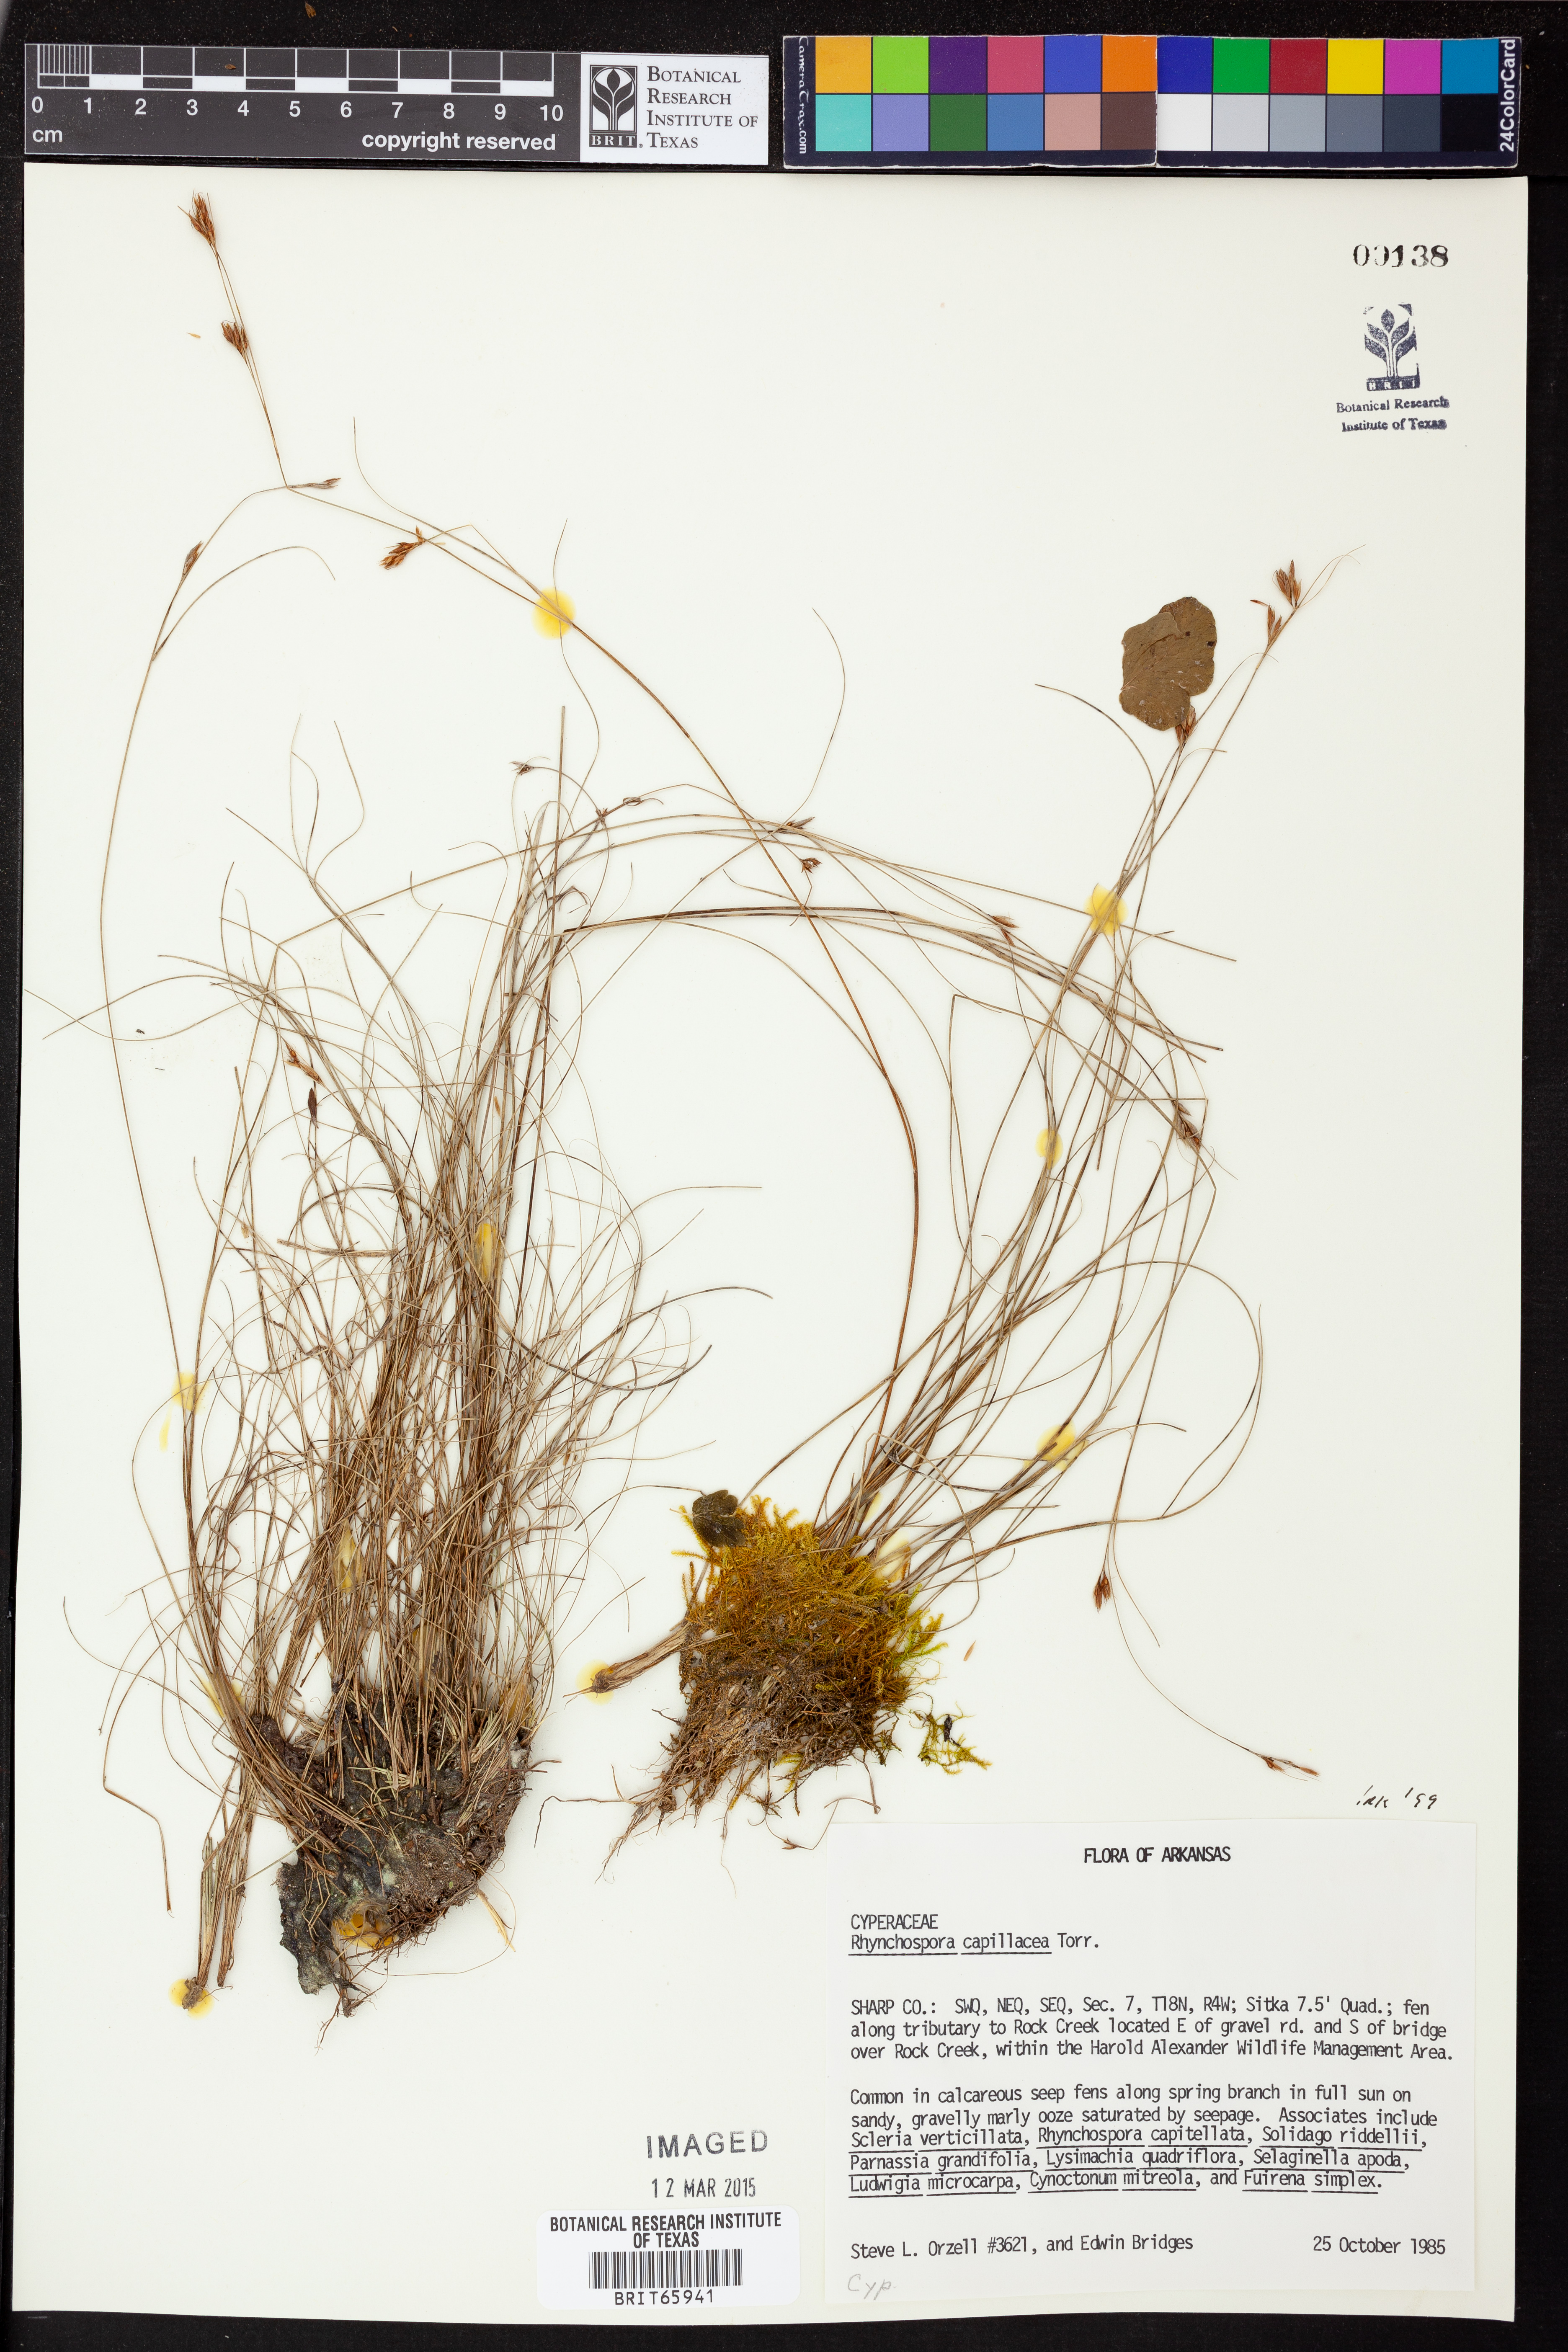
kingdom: Plantae
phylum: Tracheophyta
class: Liliopsida
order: Poales
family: Cyperaceae
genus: Rhynchospora
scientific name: Rhynchospora capillacea
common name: Capillary beakrush
